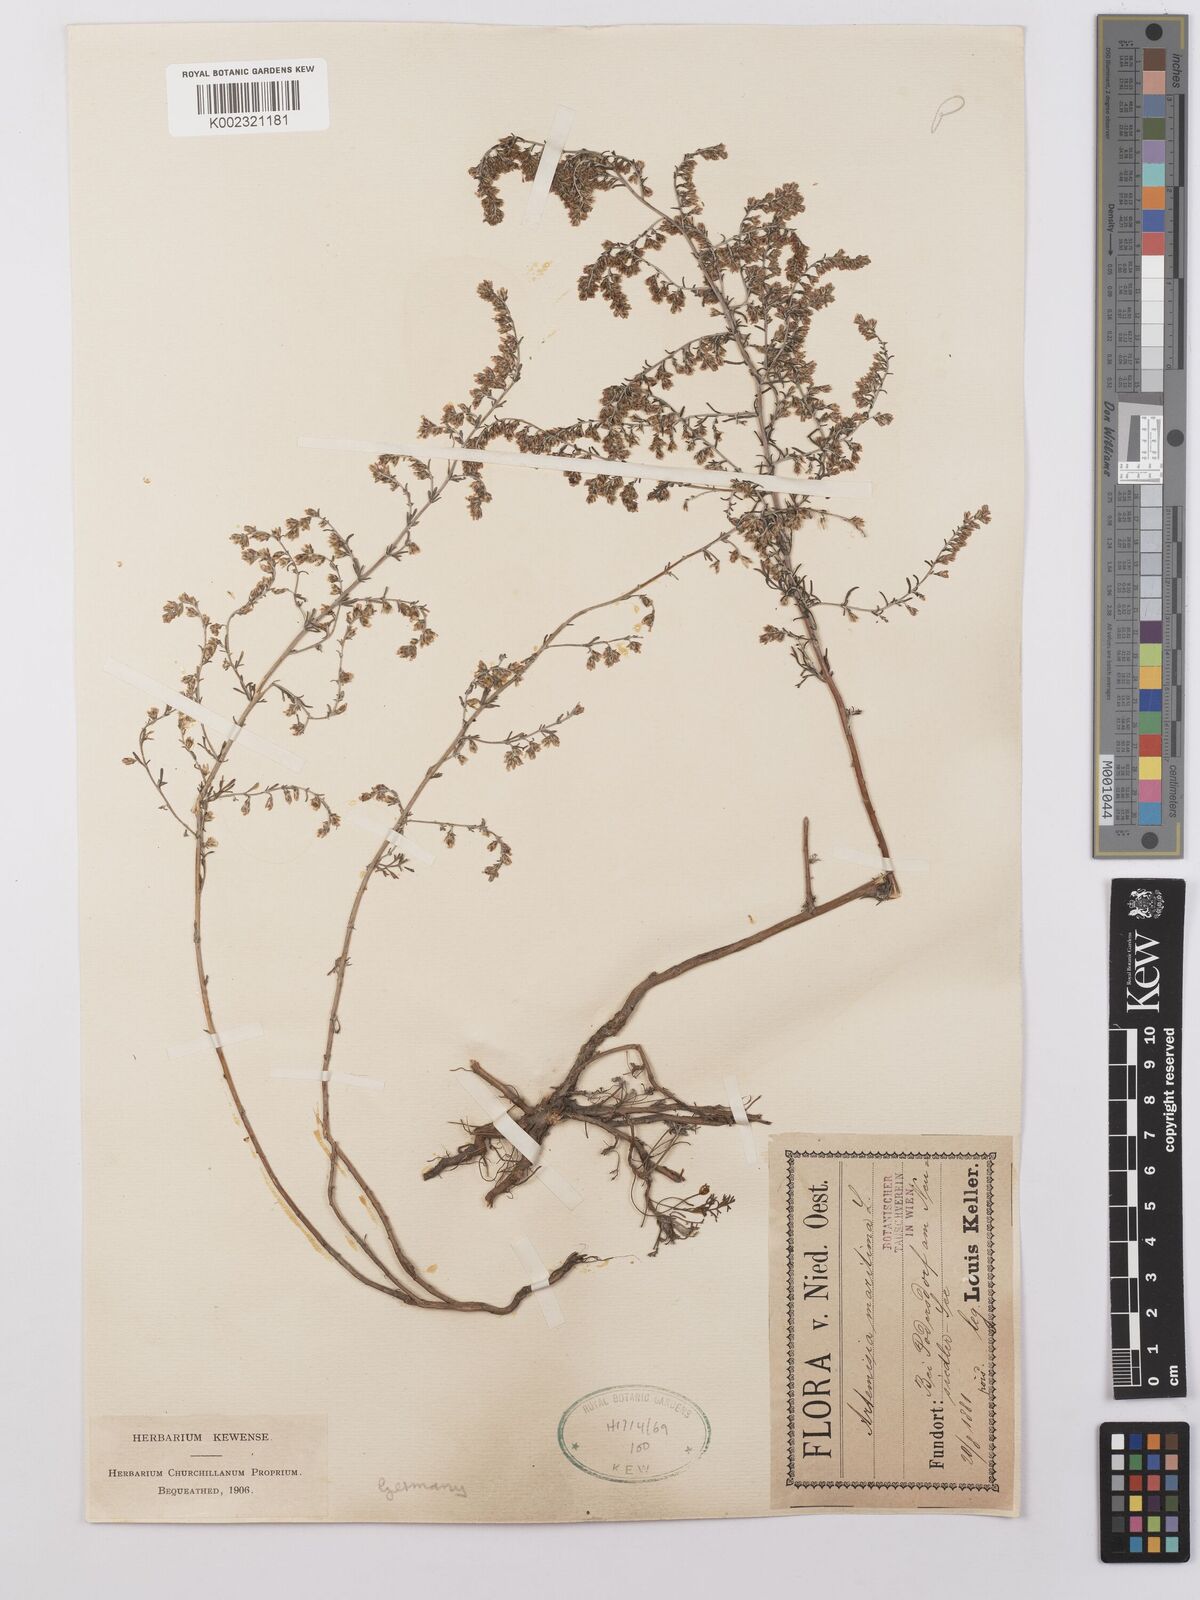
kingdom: Plantae
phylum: Tracheophyta
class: Magnoliopsida
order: Asterales
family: Asteraceae
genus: Artemisia
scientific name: Artemisia maritima
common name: Wormseed
